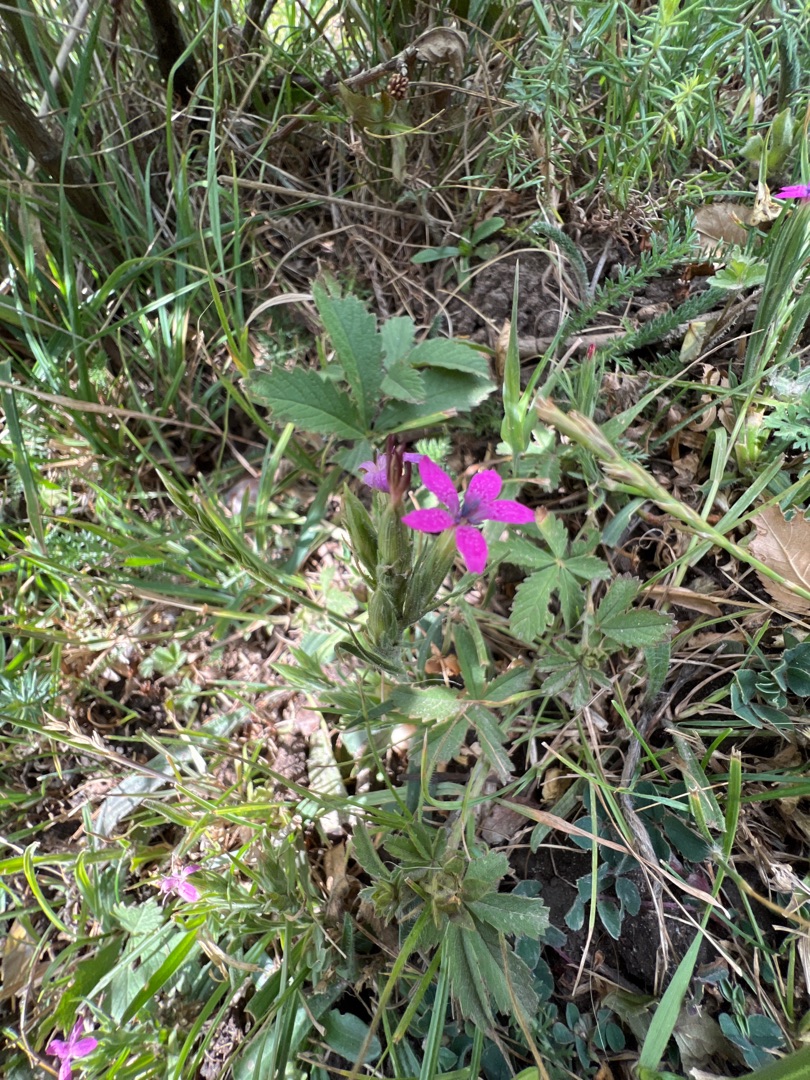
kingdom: Plantae
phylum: Tracheophyta
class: Magnoliopsida
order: Caryophyllales
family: Caryophyllaceae
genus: Dianthus
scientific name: Dianthus armeria
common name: Kost-nellike
